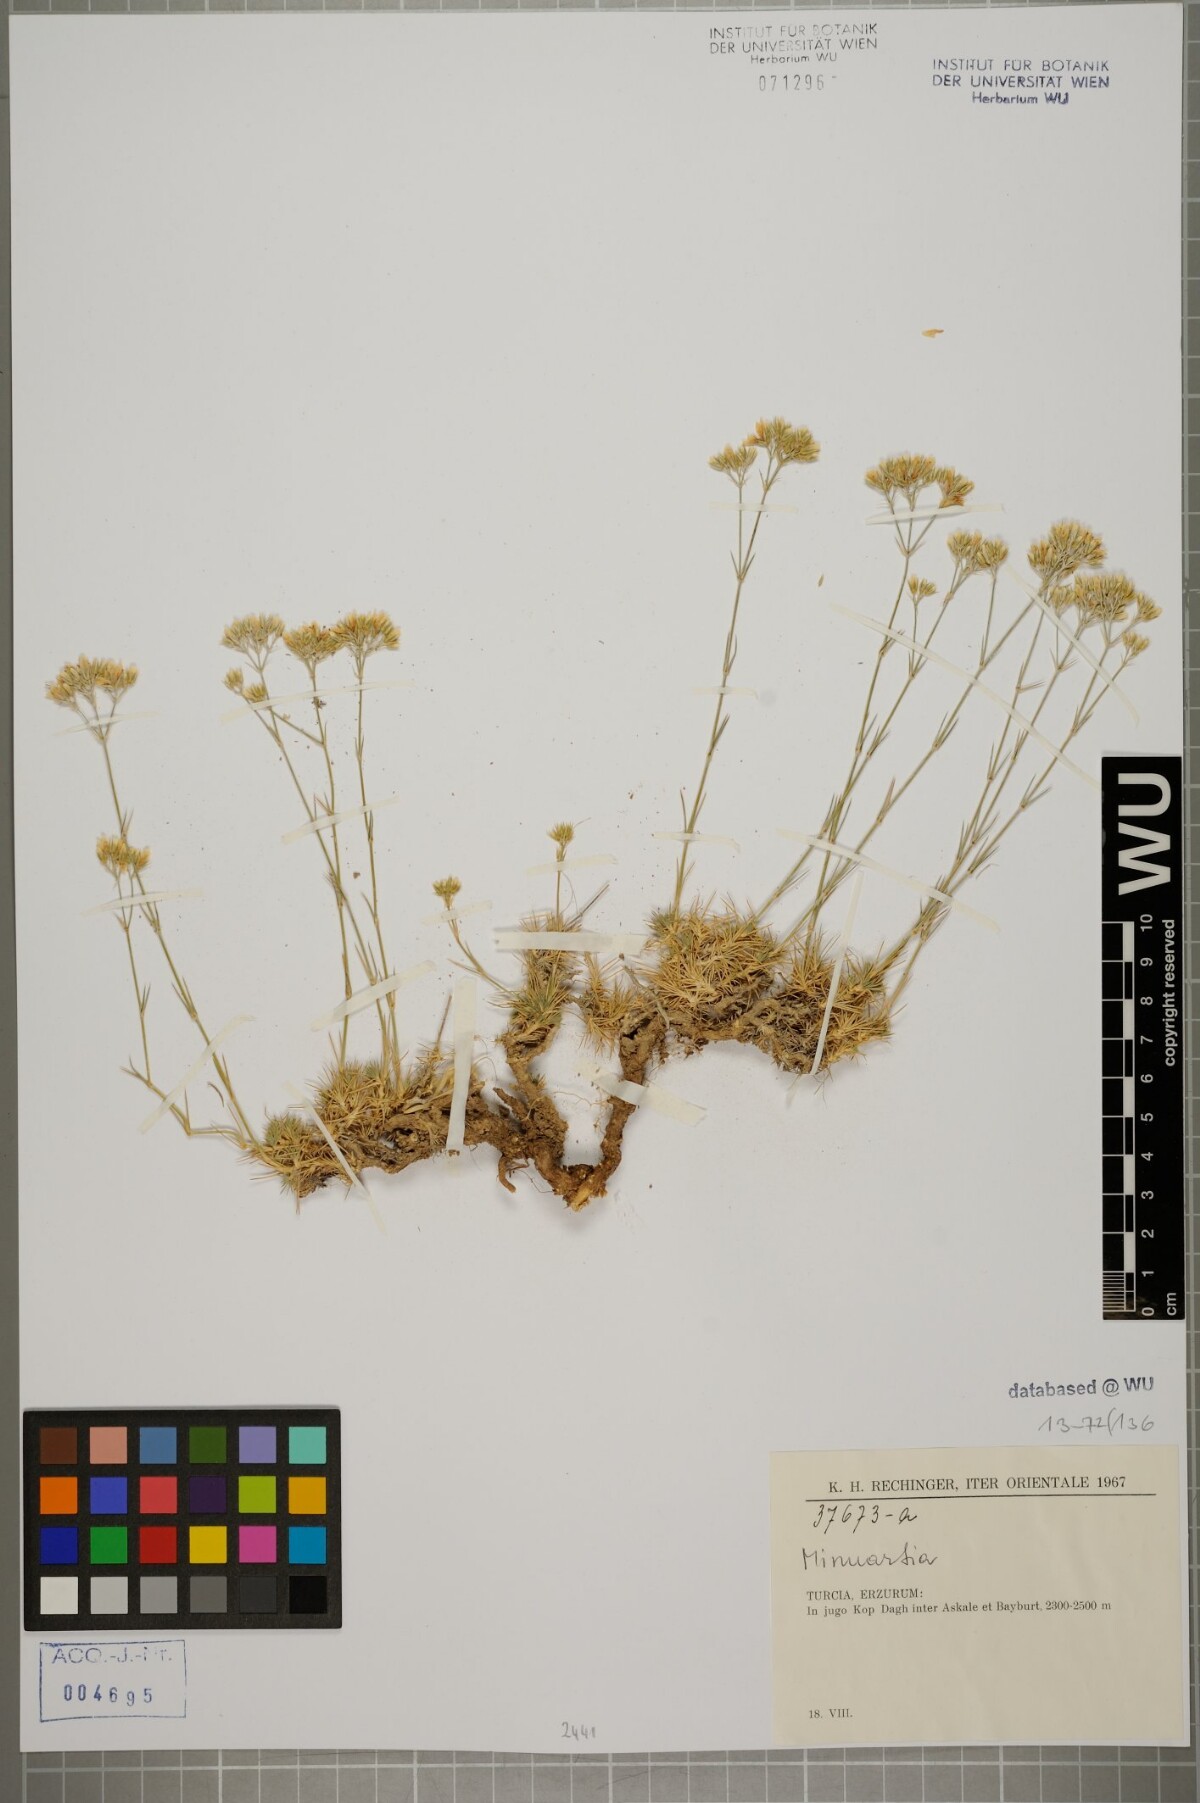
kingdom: Plantae
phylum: Tracheophyta
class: Magnoliopsida
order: Caryophyllales
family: Caryophyllaceae
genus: Eremogone
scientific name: Eremogone acutisepala
